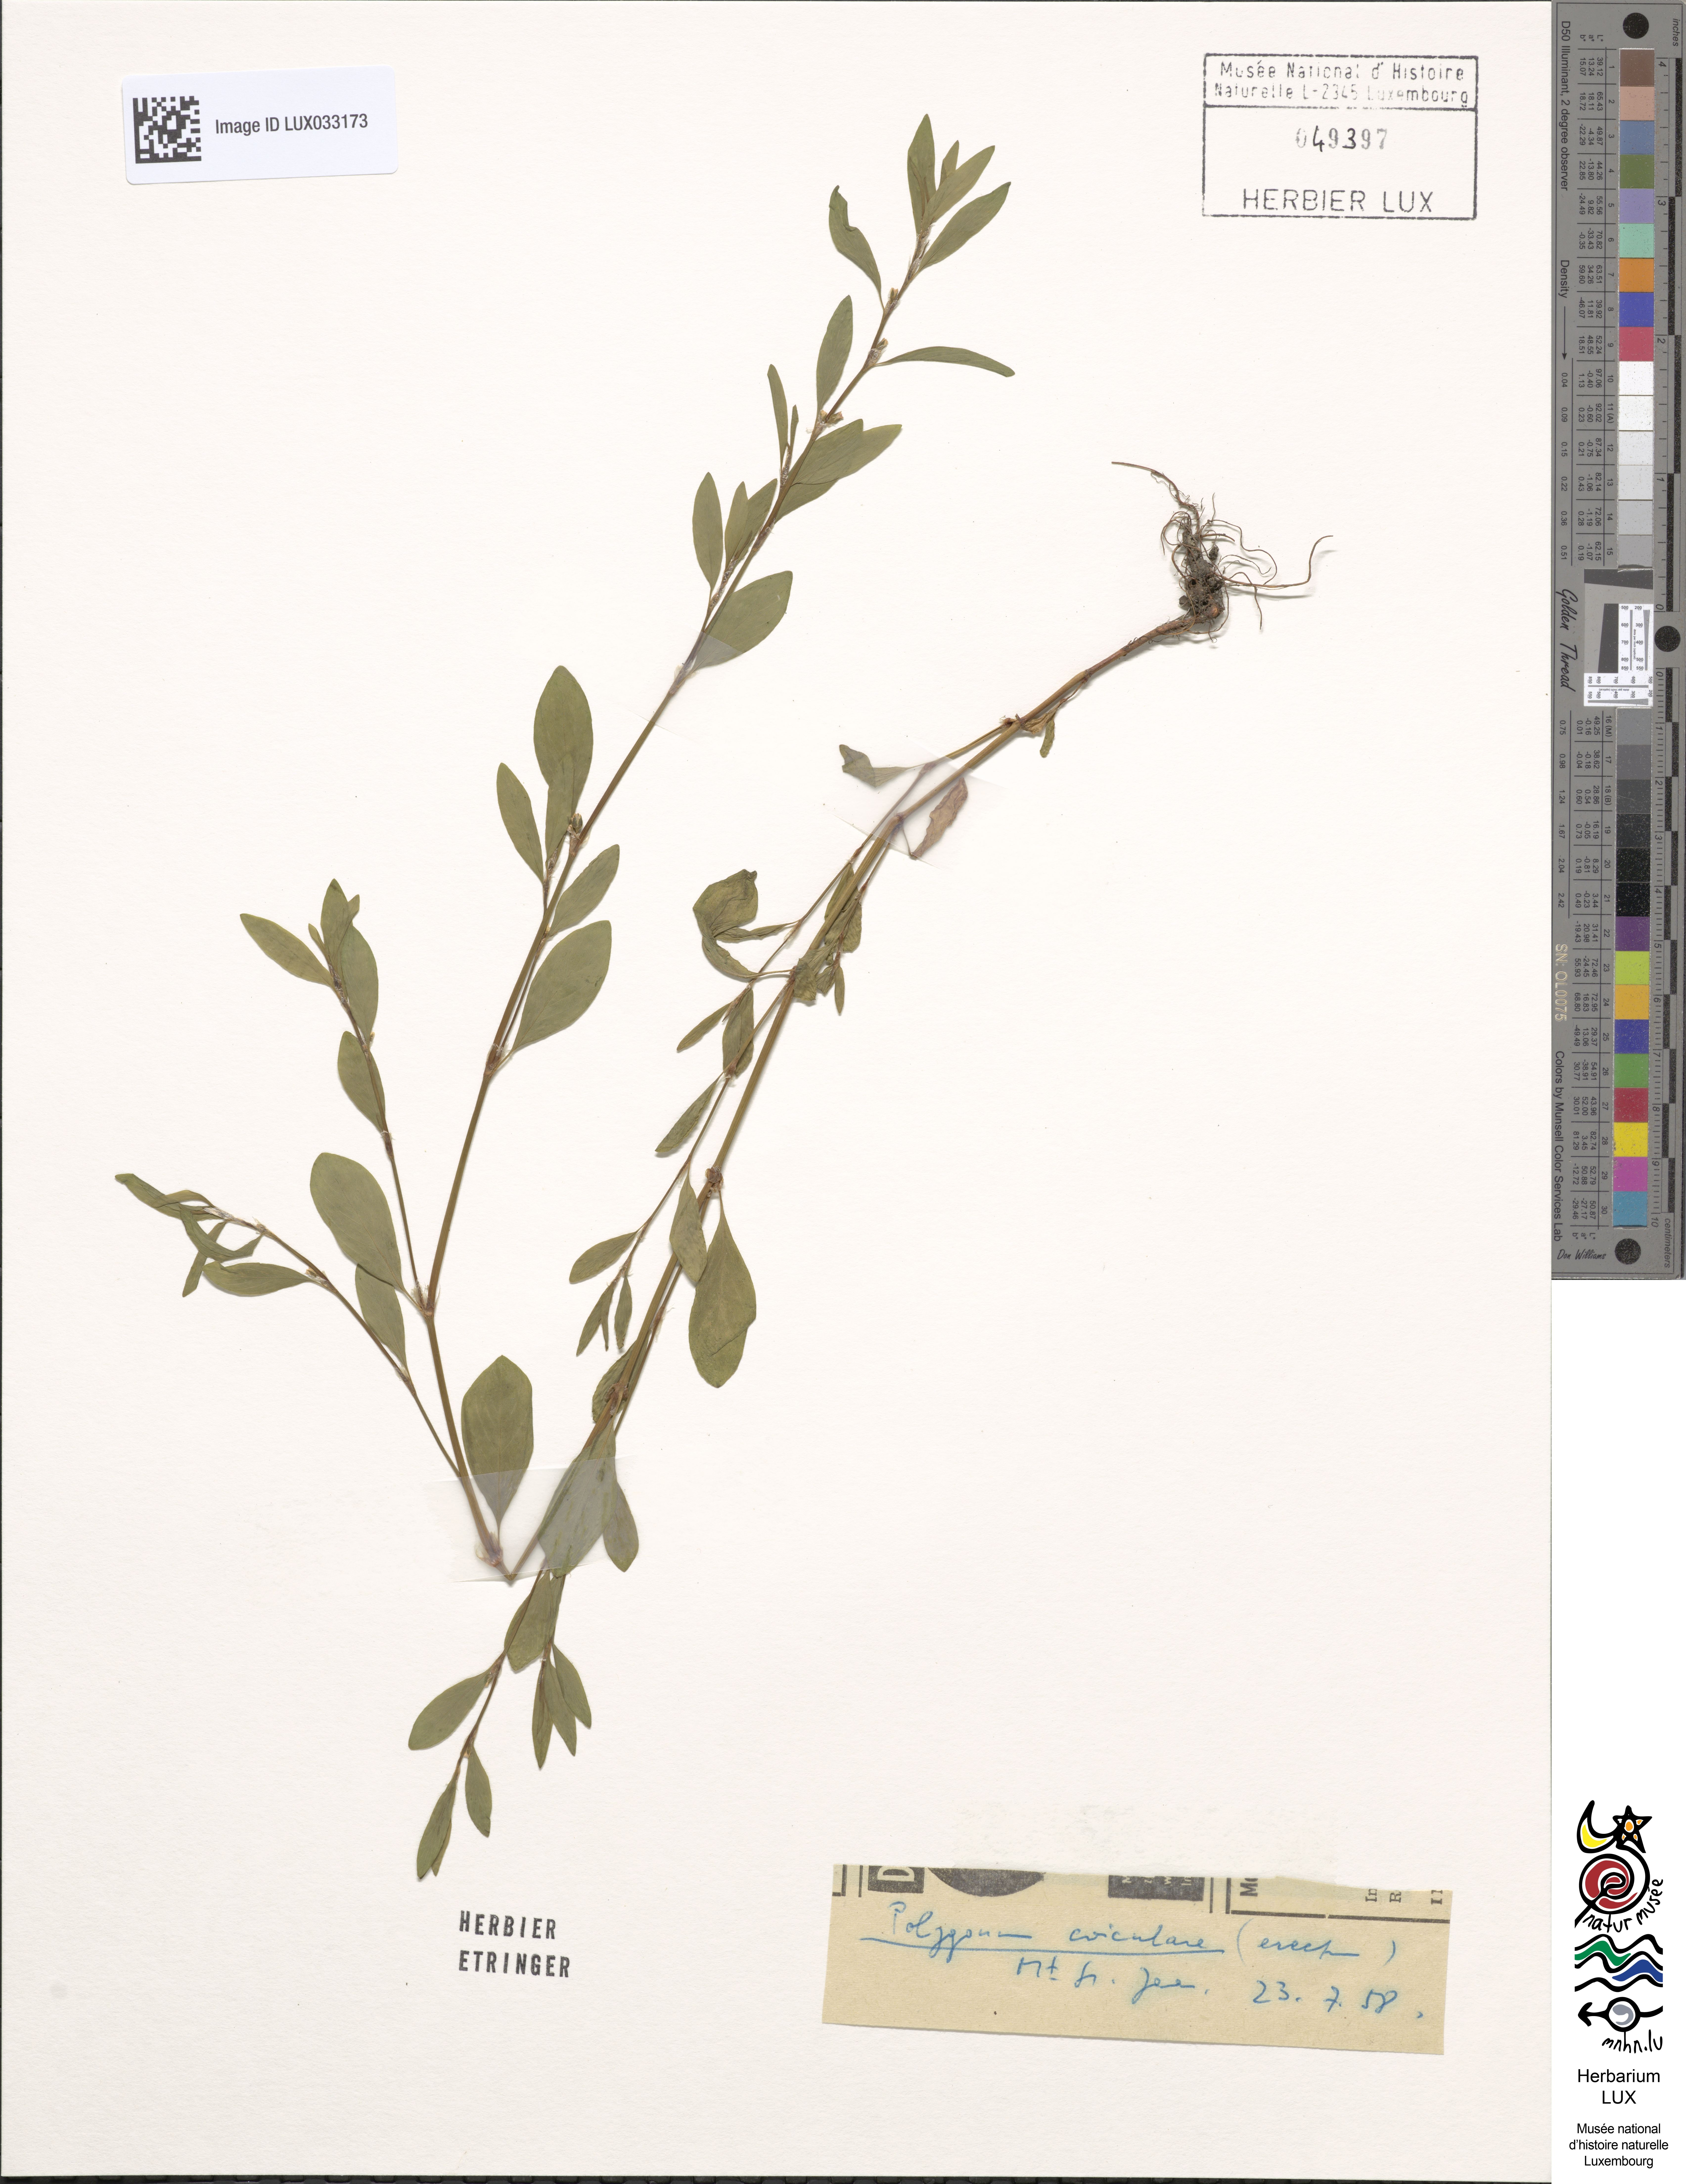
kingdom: Plantae
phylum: Tracheophyta
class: Magnoliopsida
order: Caryophyllales
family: Polygonaceae
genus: Polygonum
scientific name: Polygonum aviculare
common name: Prostrate knotweed
